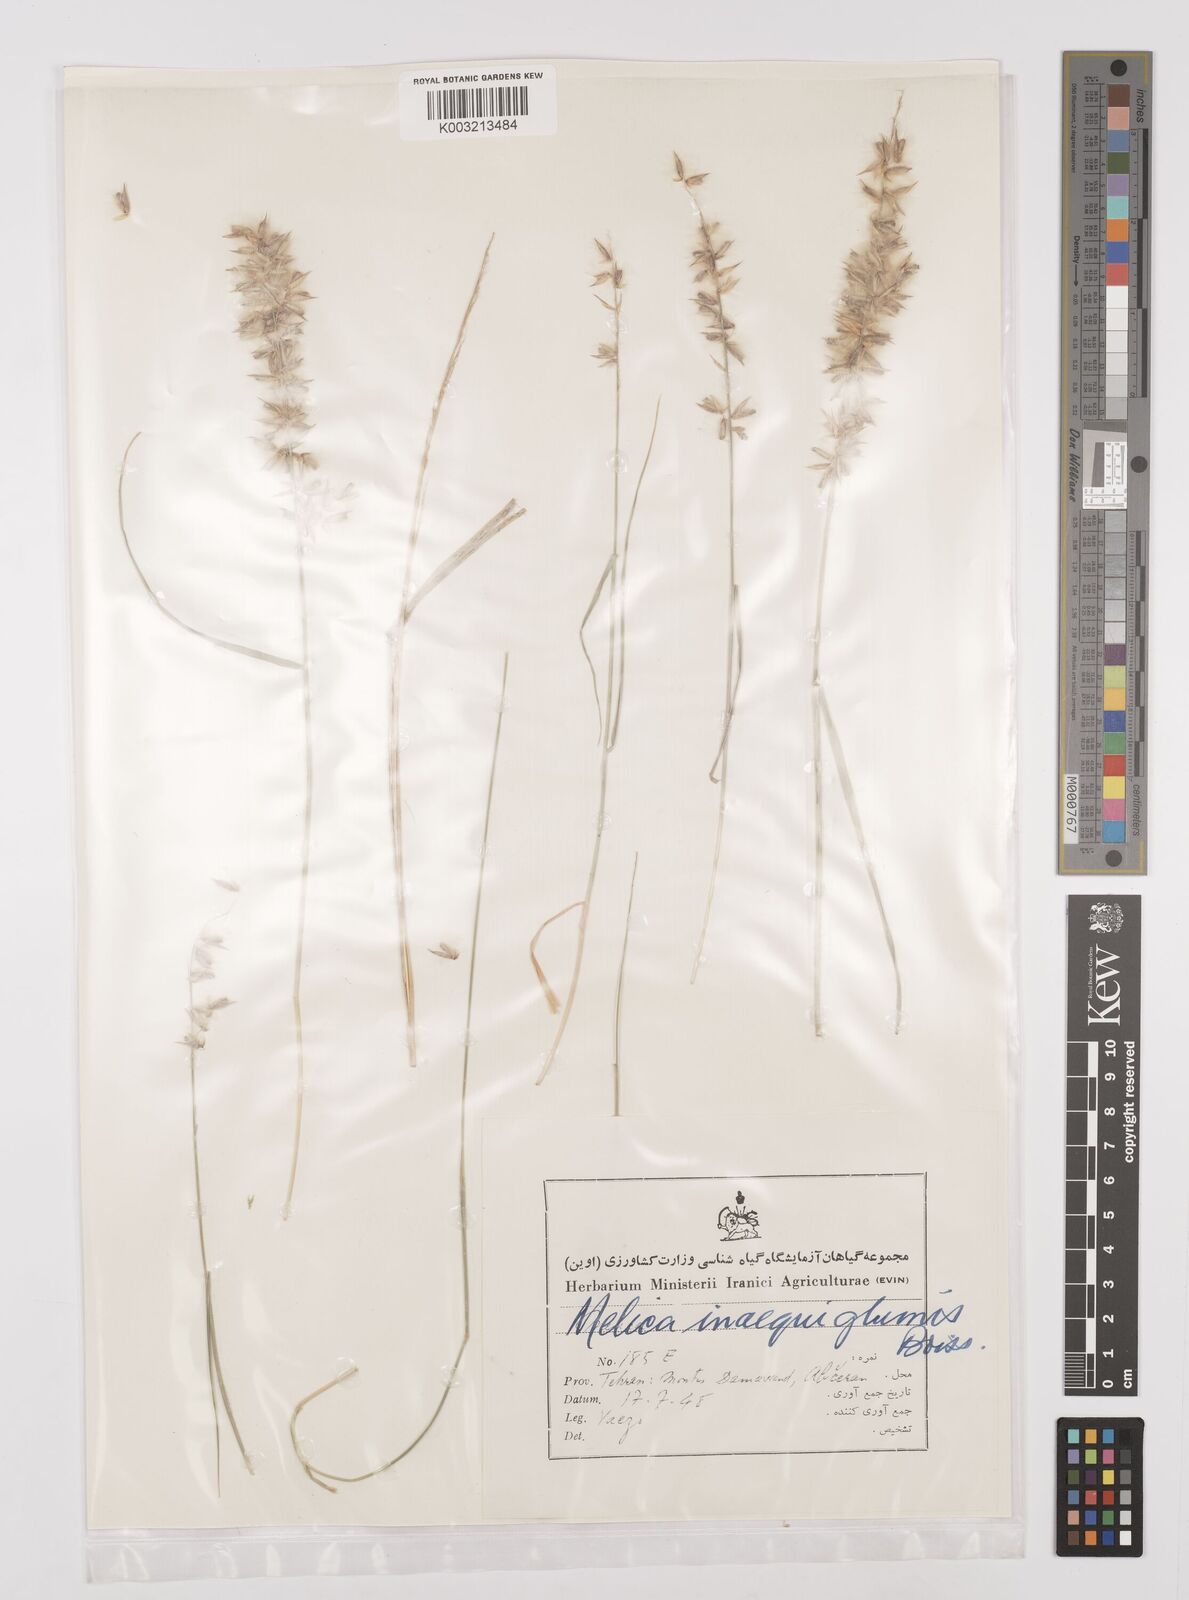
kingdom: Plantae
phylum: Tracheophyta
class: Liliopsida
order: Poales
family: Poaceae
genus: Melica
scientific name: Melica persica
